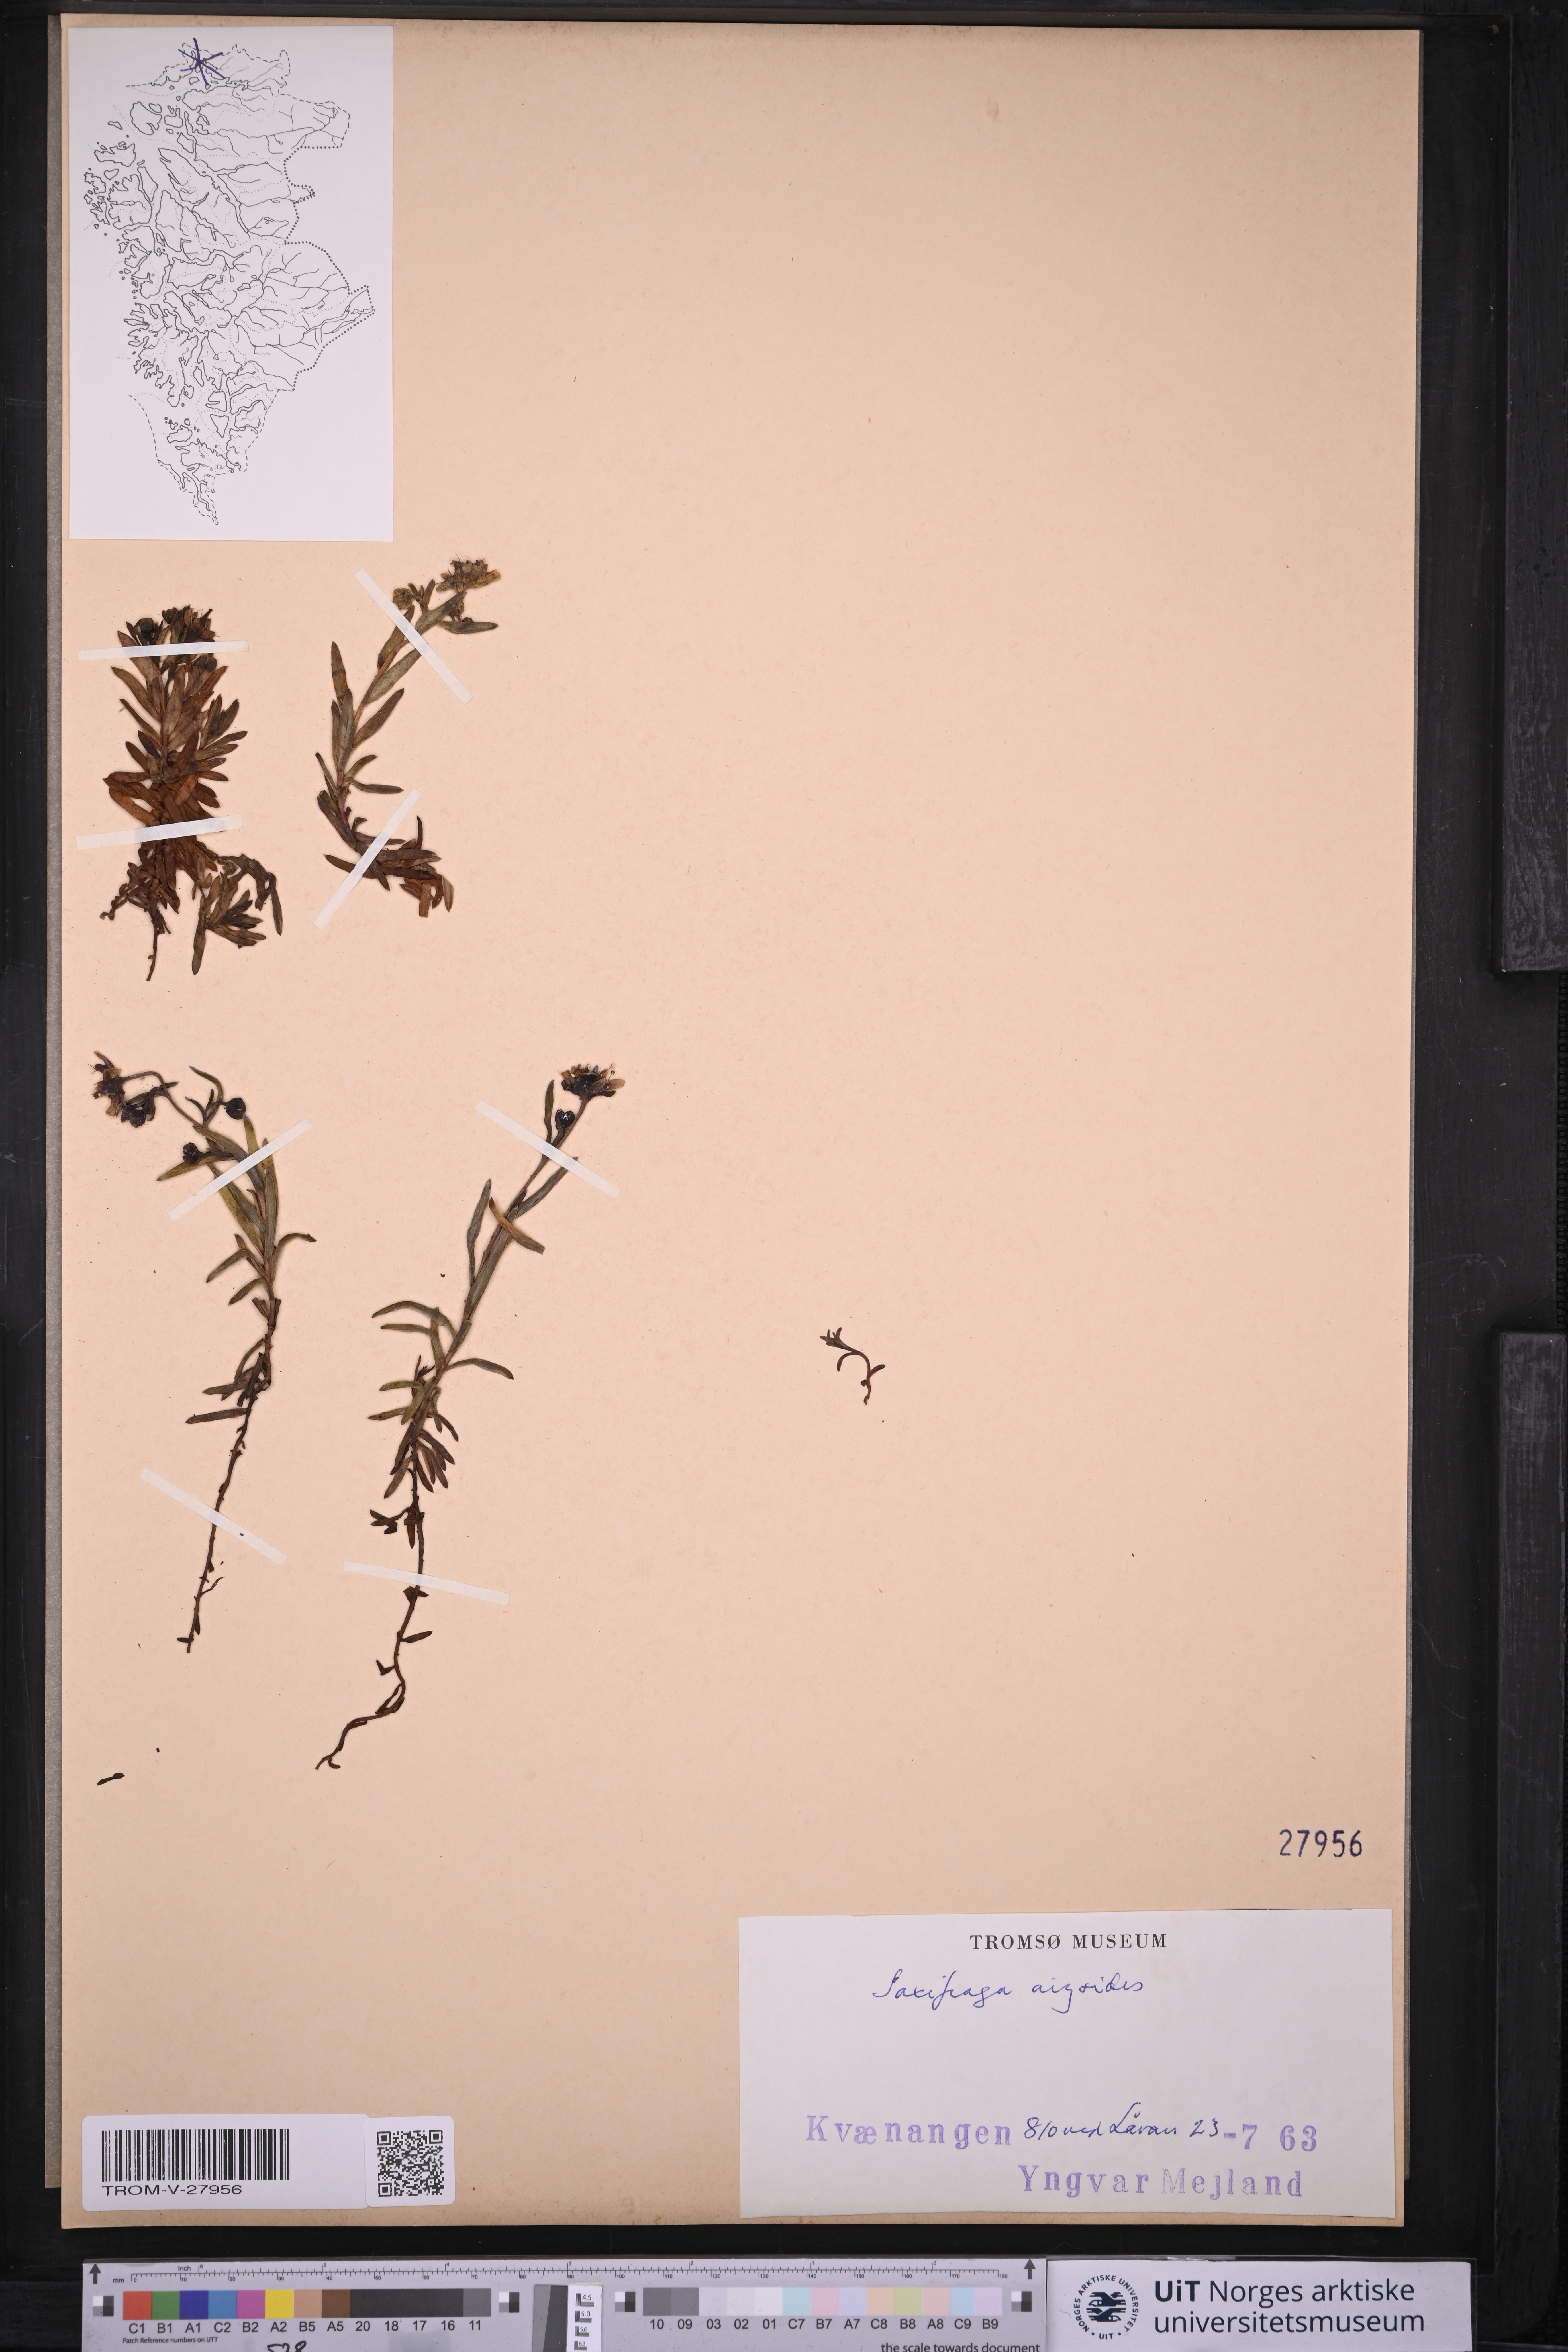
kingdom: Plantae
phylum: Tracheophyta
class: Magnoliopsida
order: Saxifragales
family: Saxifragaceae
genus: Saxifraga
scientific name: Saxifraga aizoides
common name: Yellow mountain saxifrage
